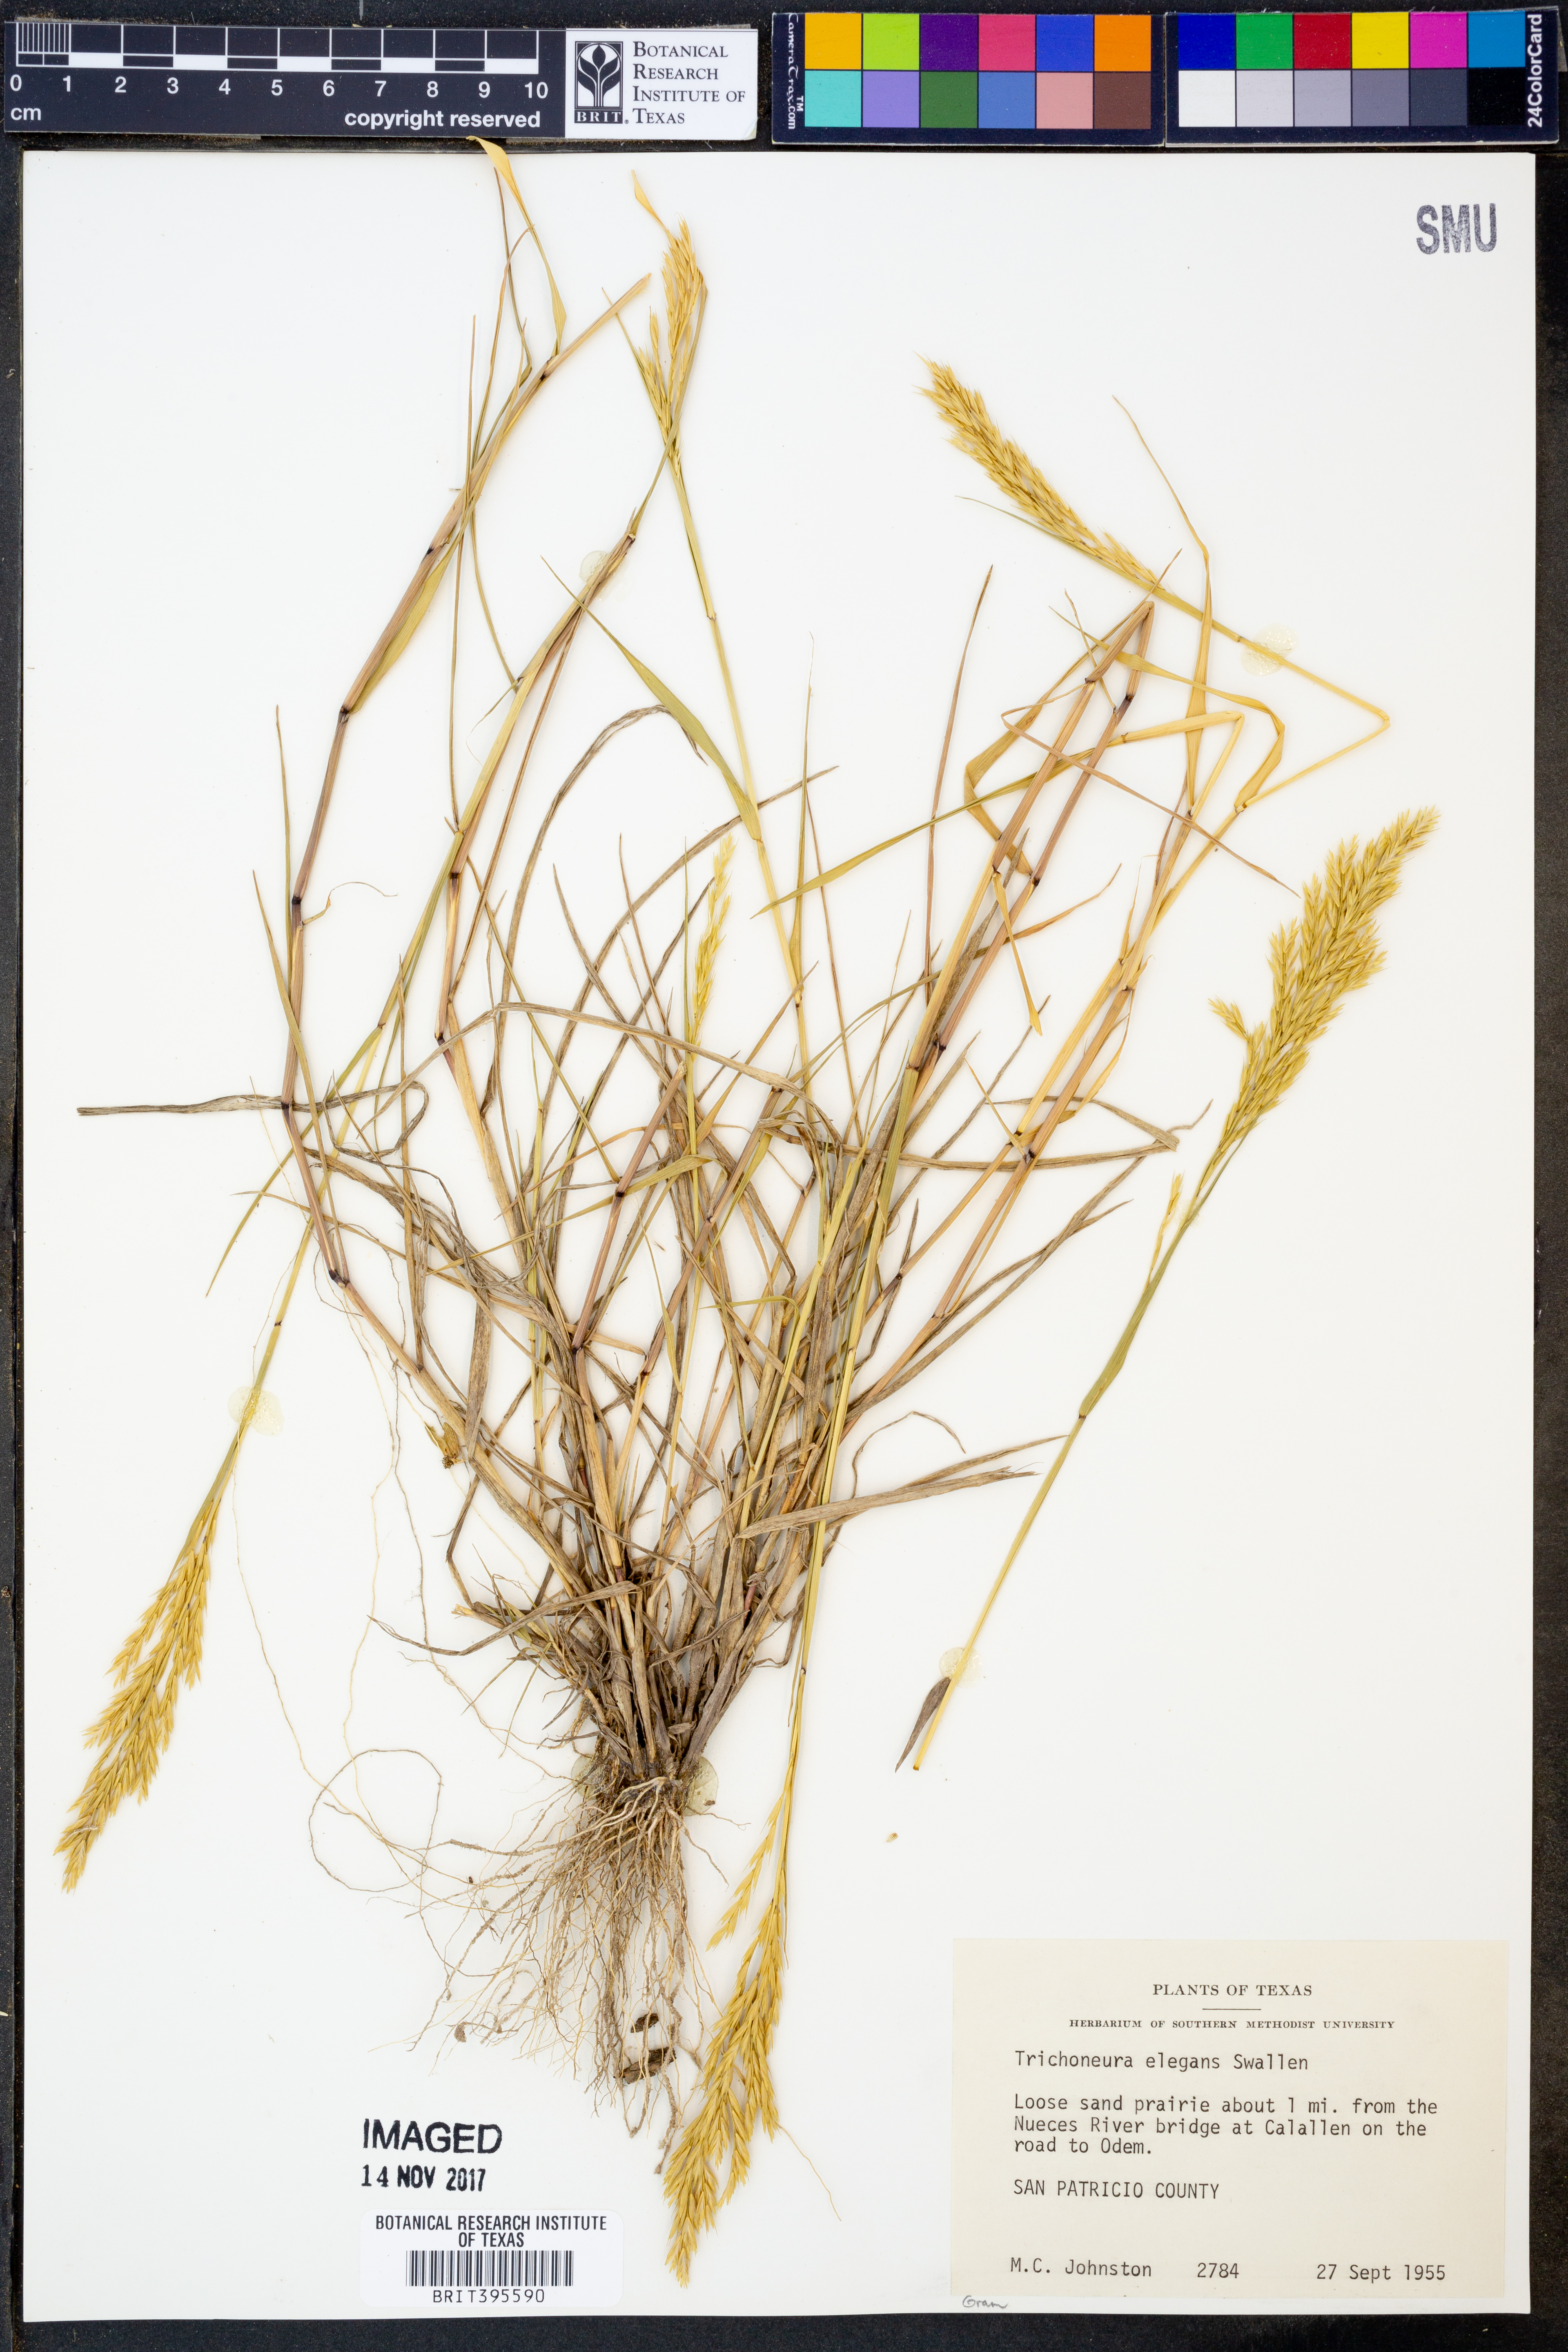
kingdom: Plantae
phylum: Tracheophyta
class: Liliopsida
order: Poales
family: Poaceae
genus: Trichoneura
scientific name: Trichoneura elegans
